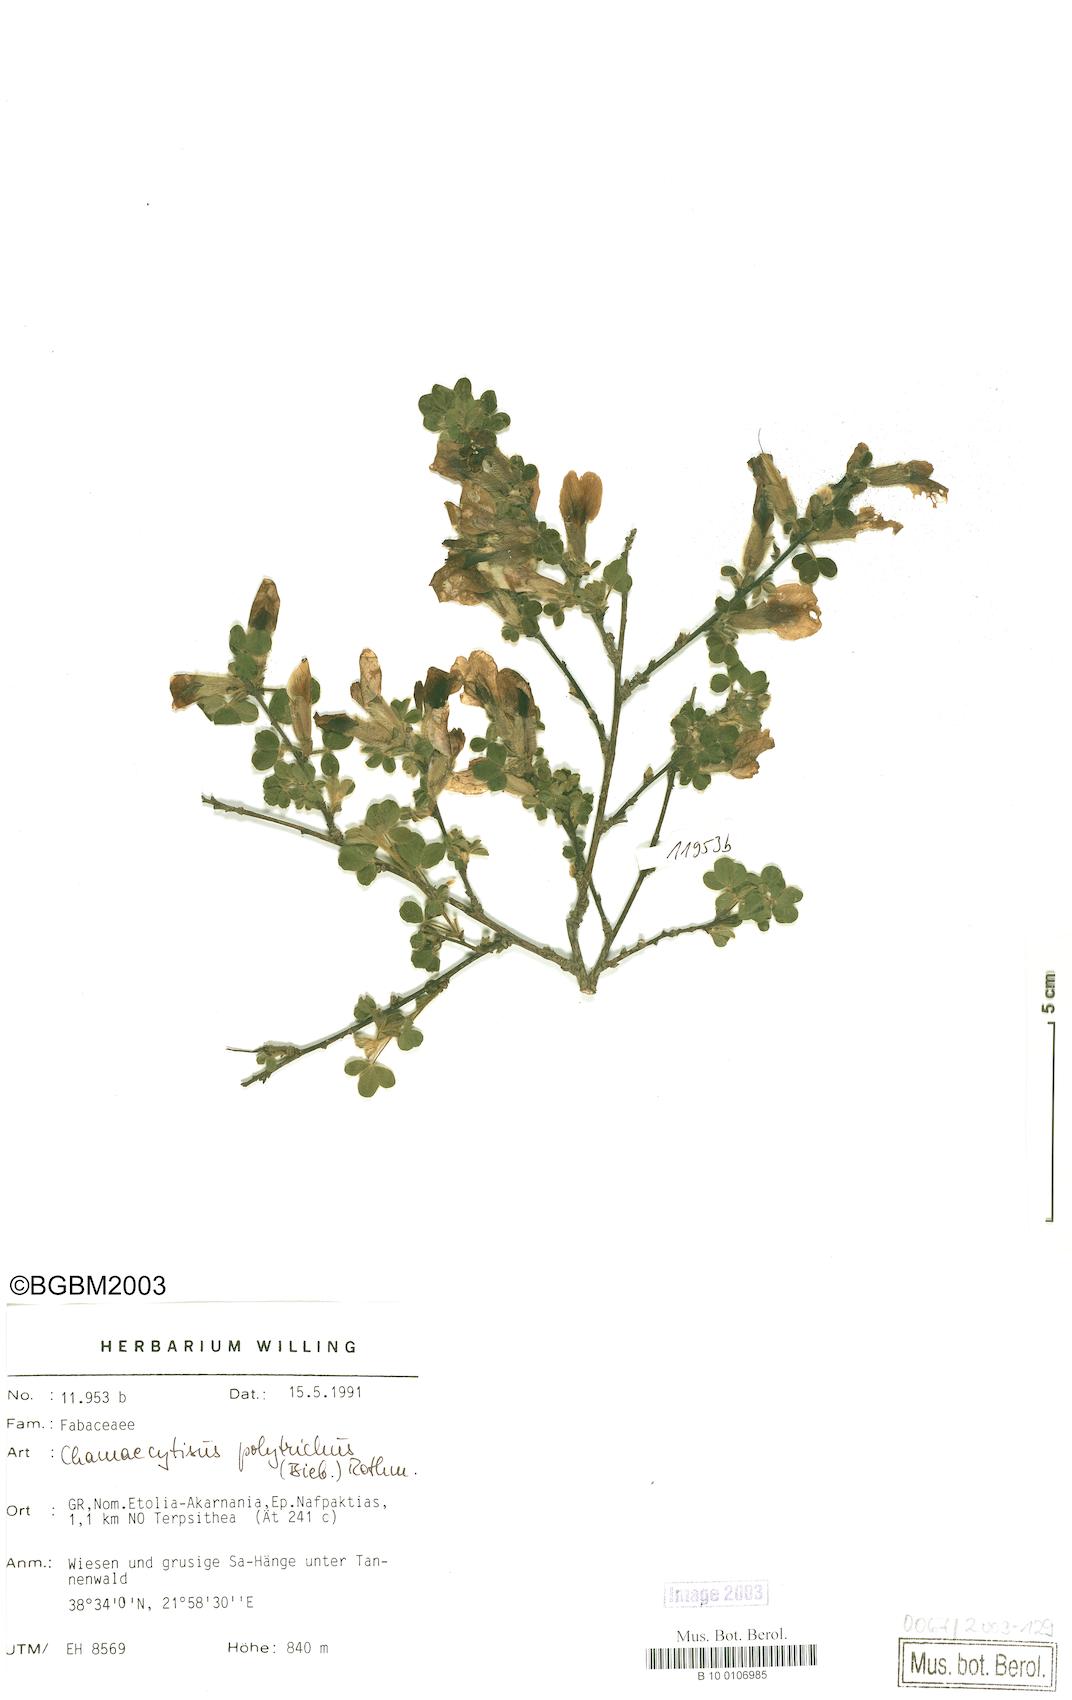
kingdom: Plantae
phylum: Tracheophyta
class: Magnoliopsida
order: Fabales
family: Fabaceae
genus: Chamaecytisus
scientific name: Chamaecytisus hirsutus
